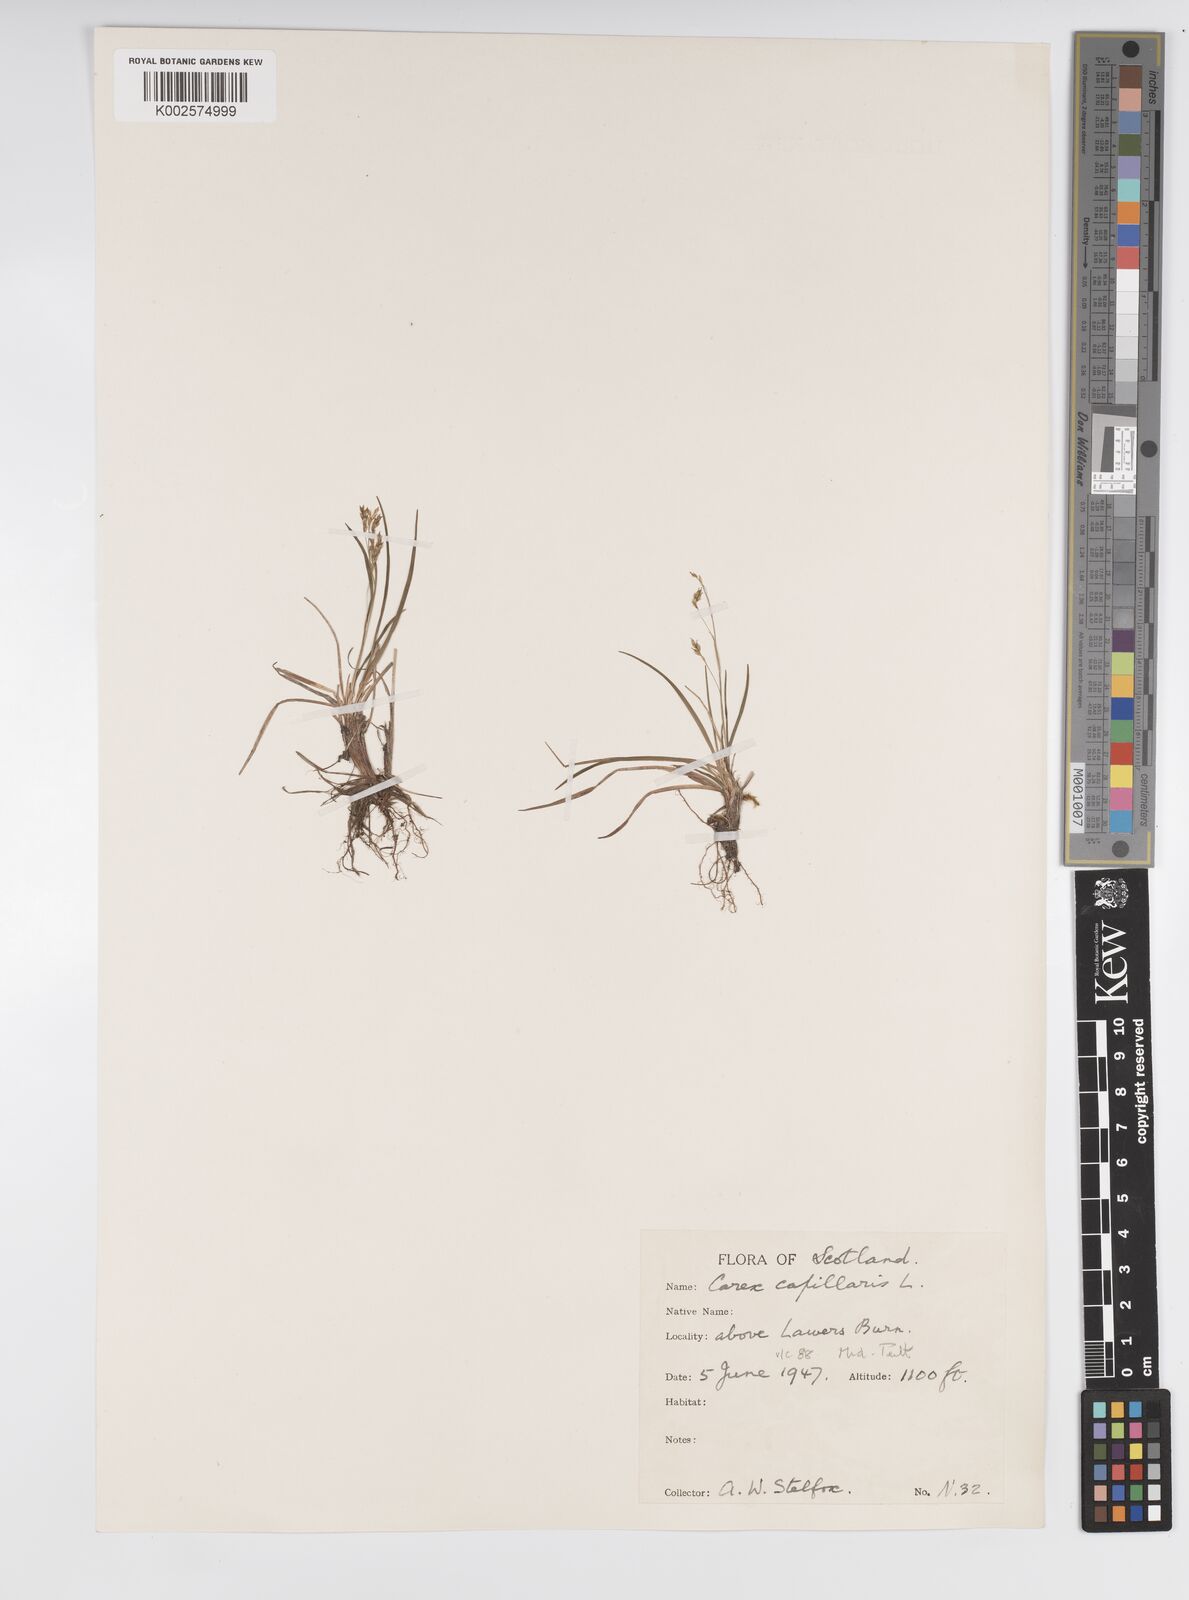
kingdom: Plantae
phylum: Tracheophyta
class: Liliopsida
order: Poales
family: Cyperaceae
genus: Carex
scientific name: Carex capillaris
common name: Hair sedge
